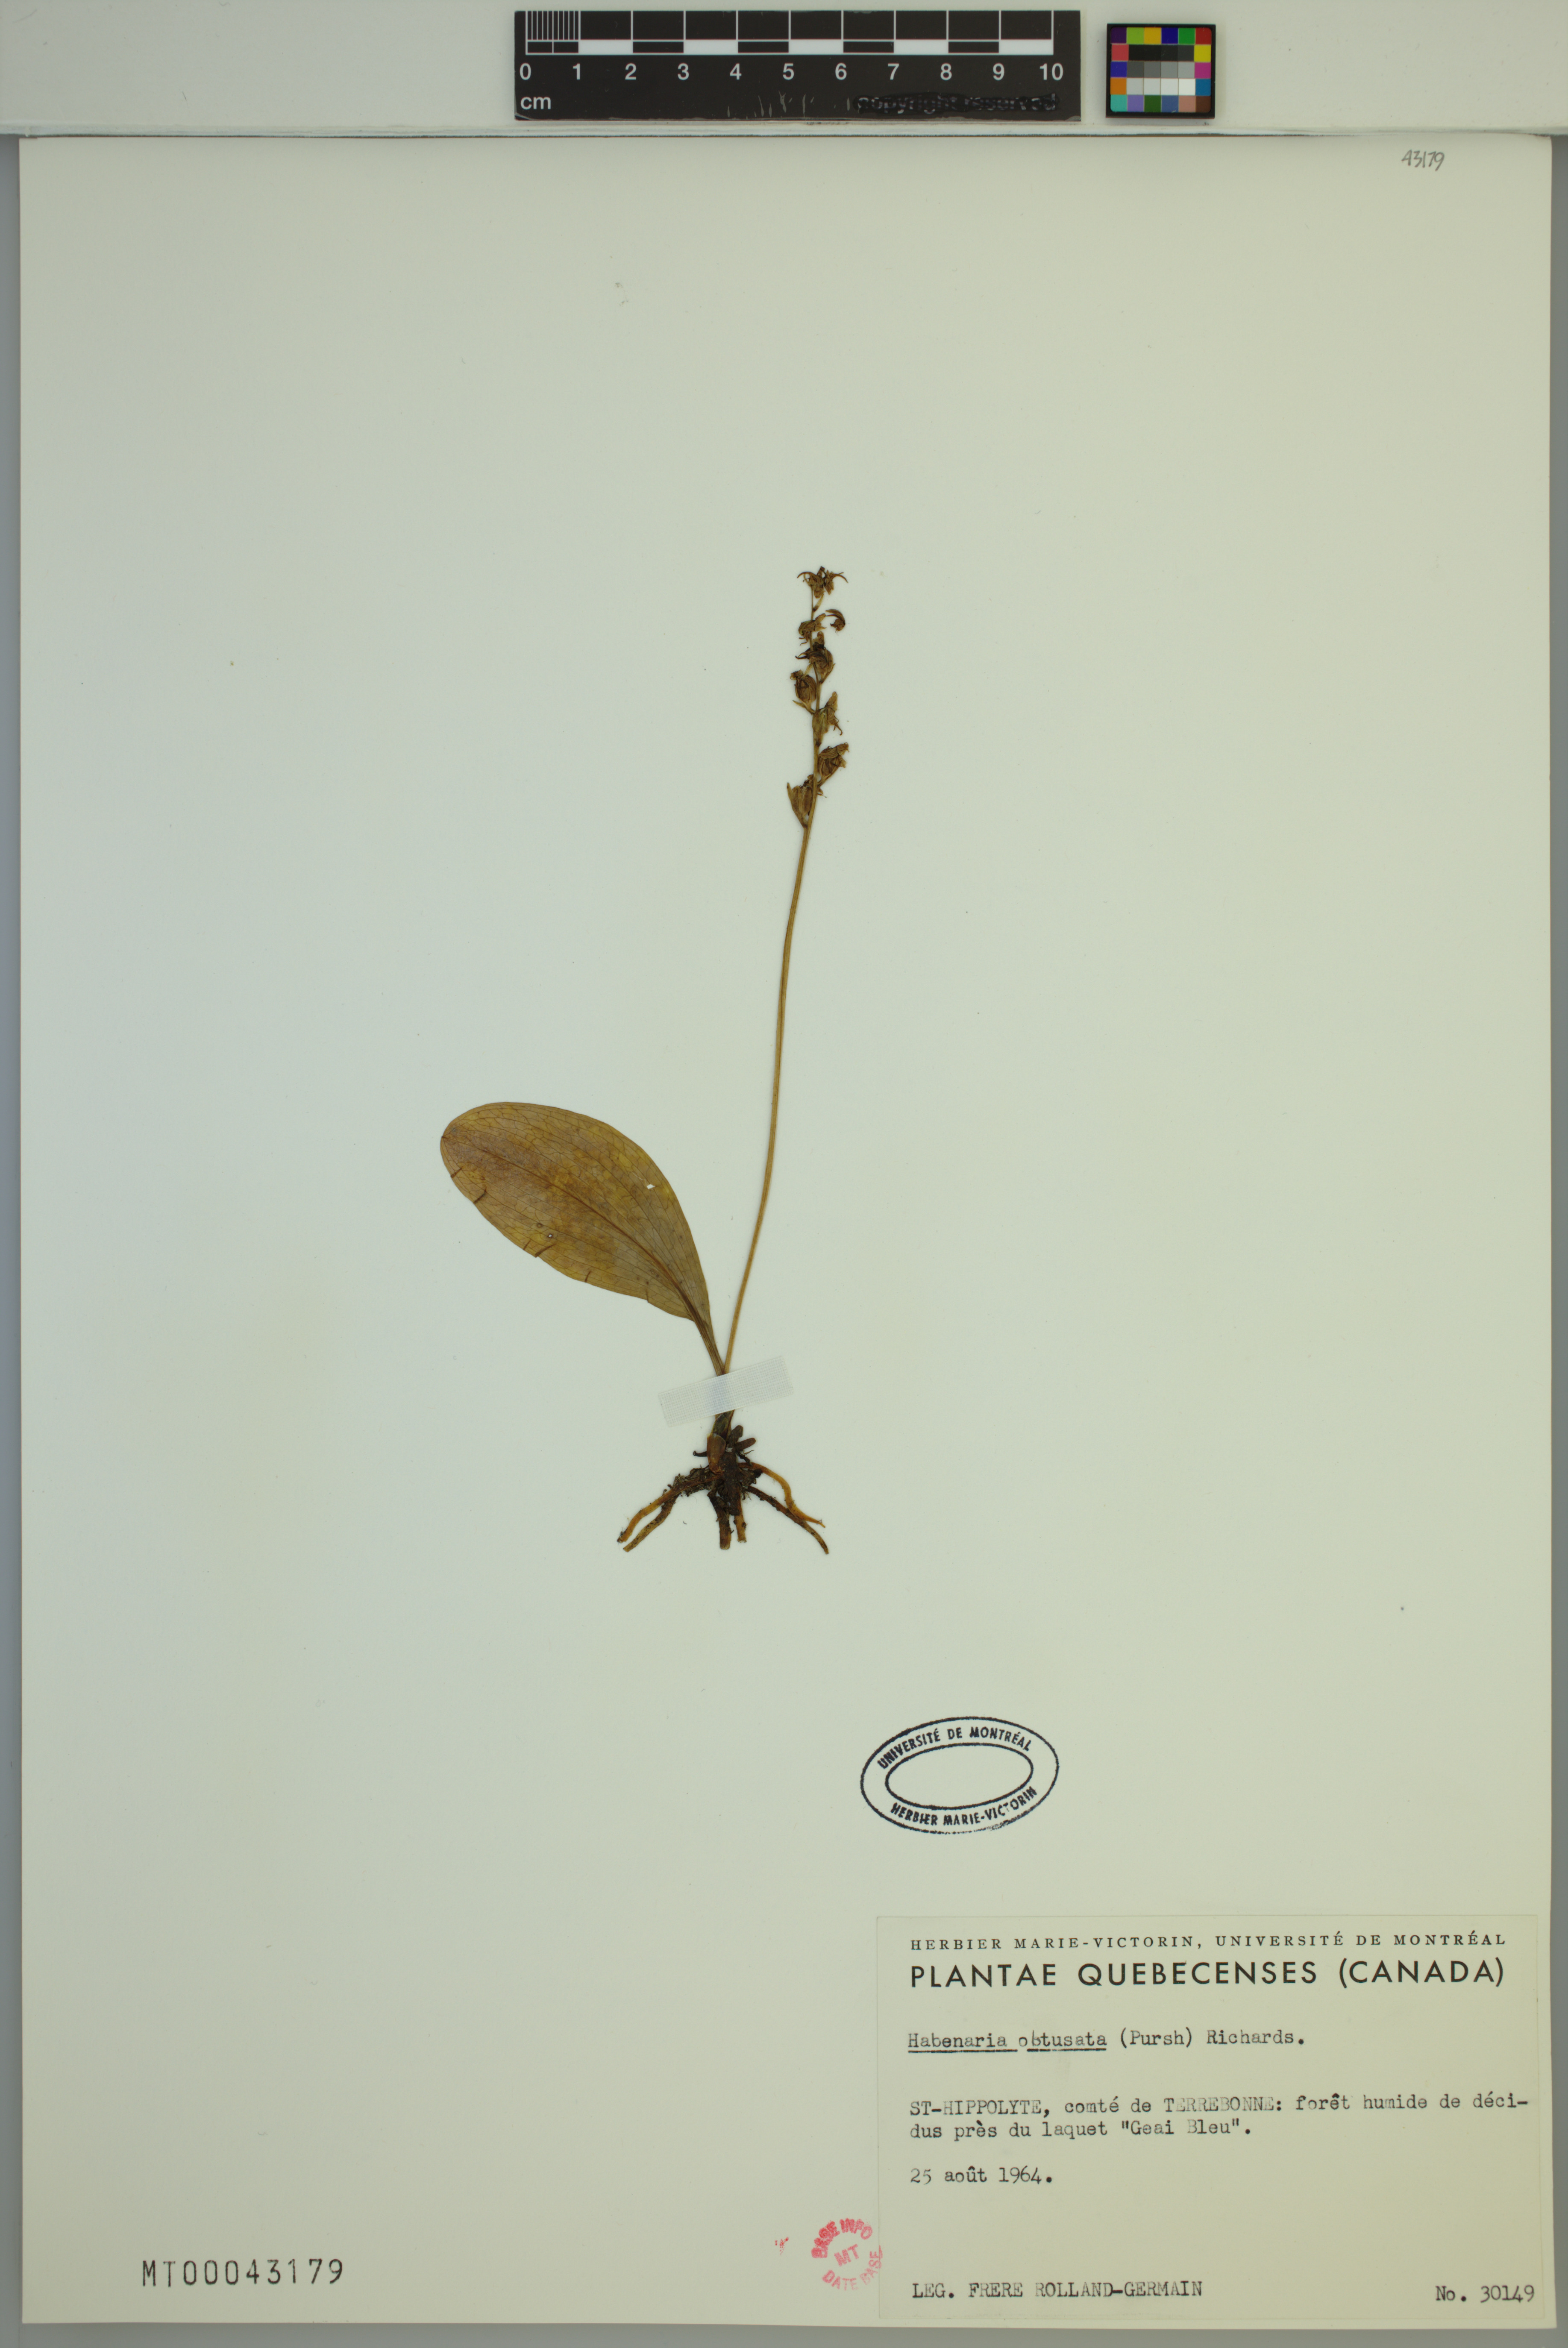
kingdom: Plantae
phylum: Tracheophyta
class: Liliopsida
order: Asparagales
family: Orchidaceae
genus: Platanthera
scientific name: Platanthera obtusata
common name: Blunt bog orchid
